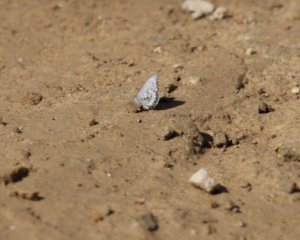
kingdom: Animalia
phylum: Arthropoda
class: Insecta
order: Lepidoptera
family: Lycaenidae
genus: Celastrina
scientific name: Celastrina lucia
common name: Northern Spring Azure
